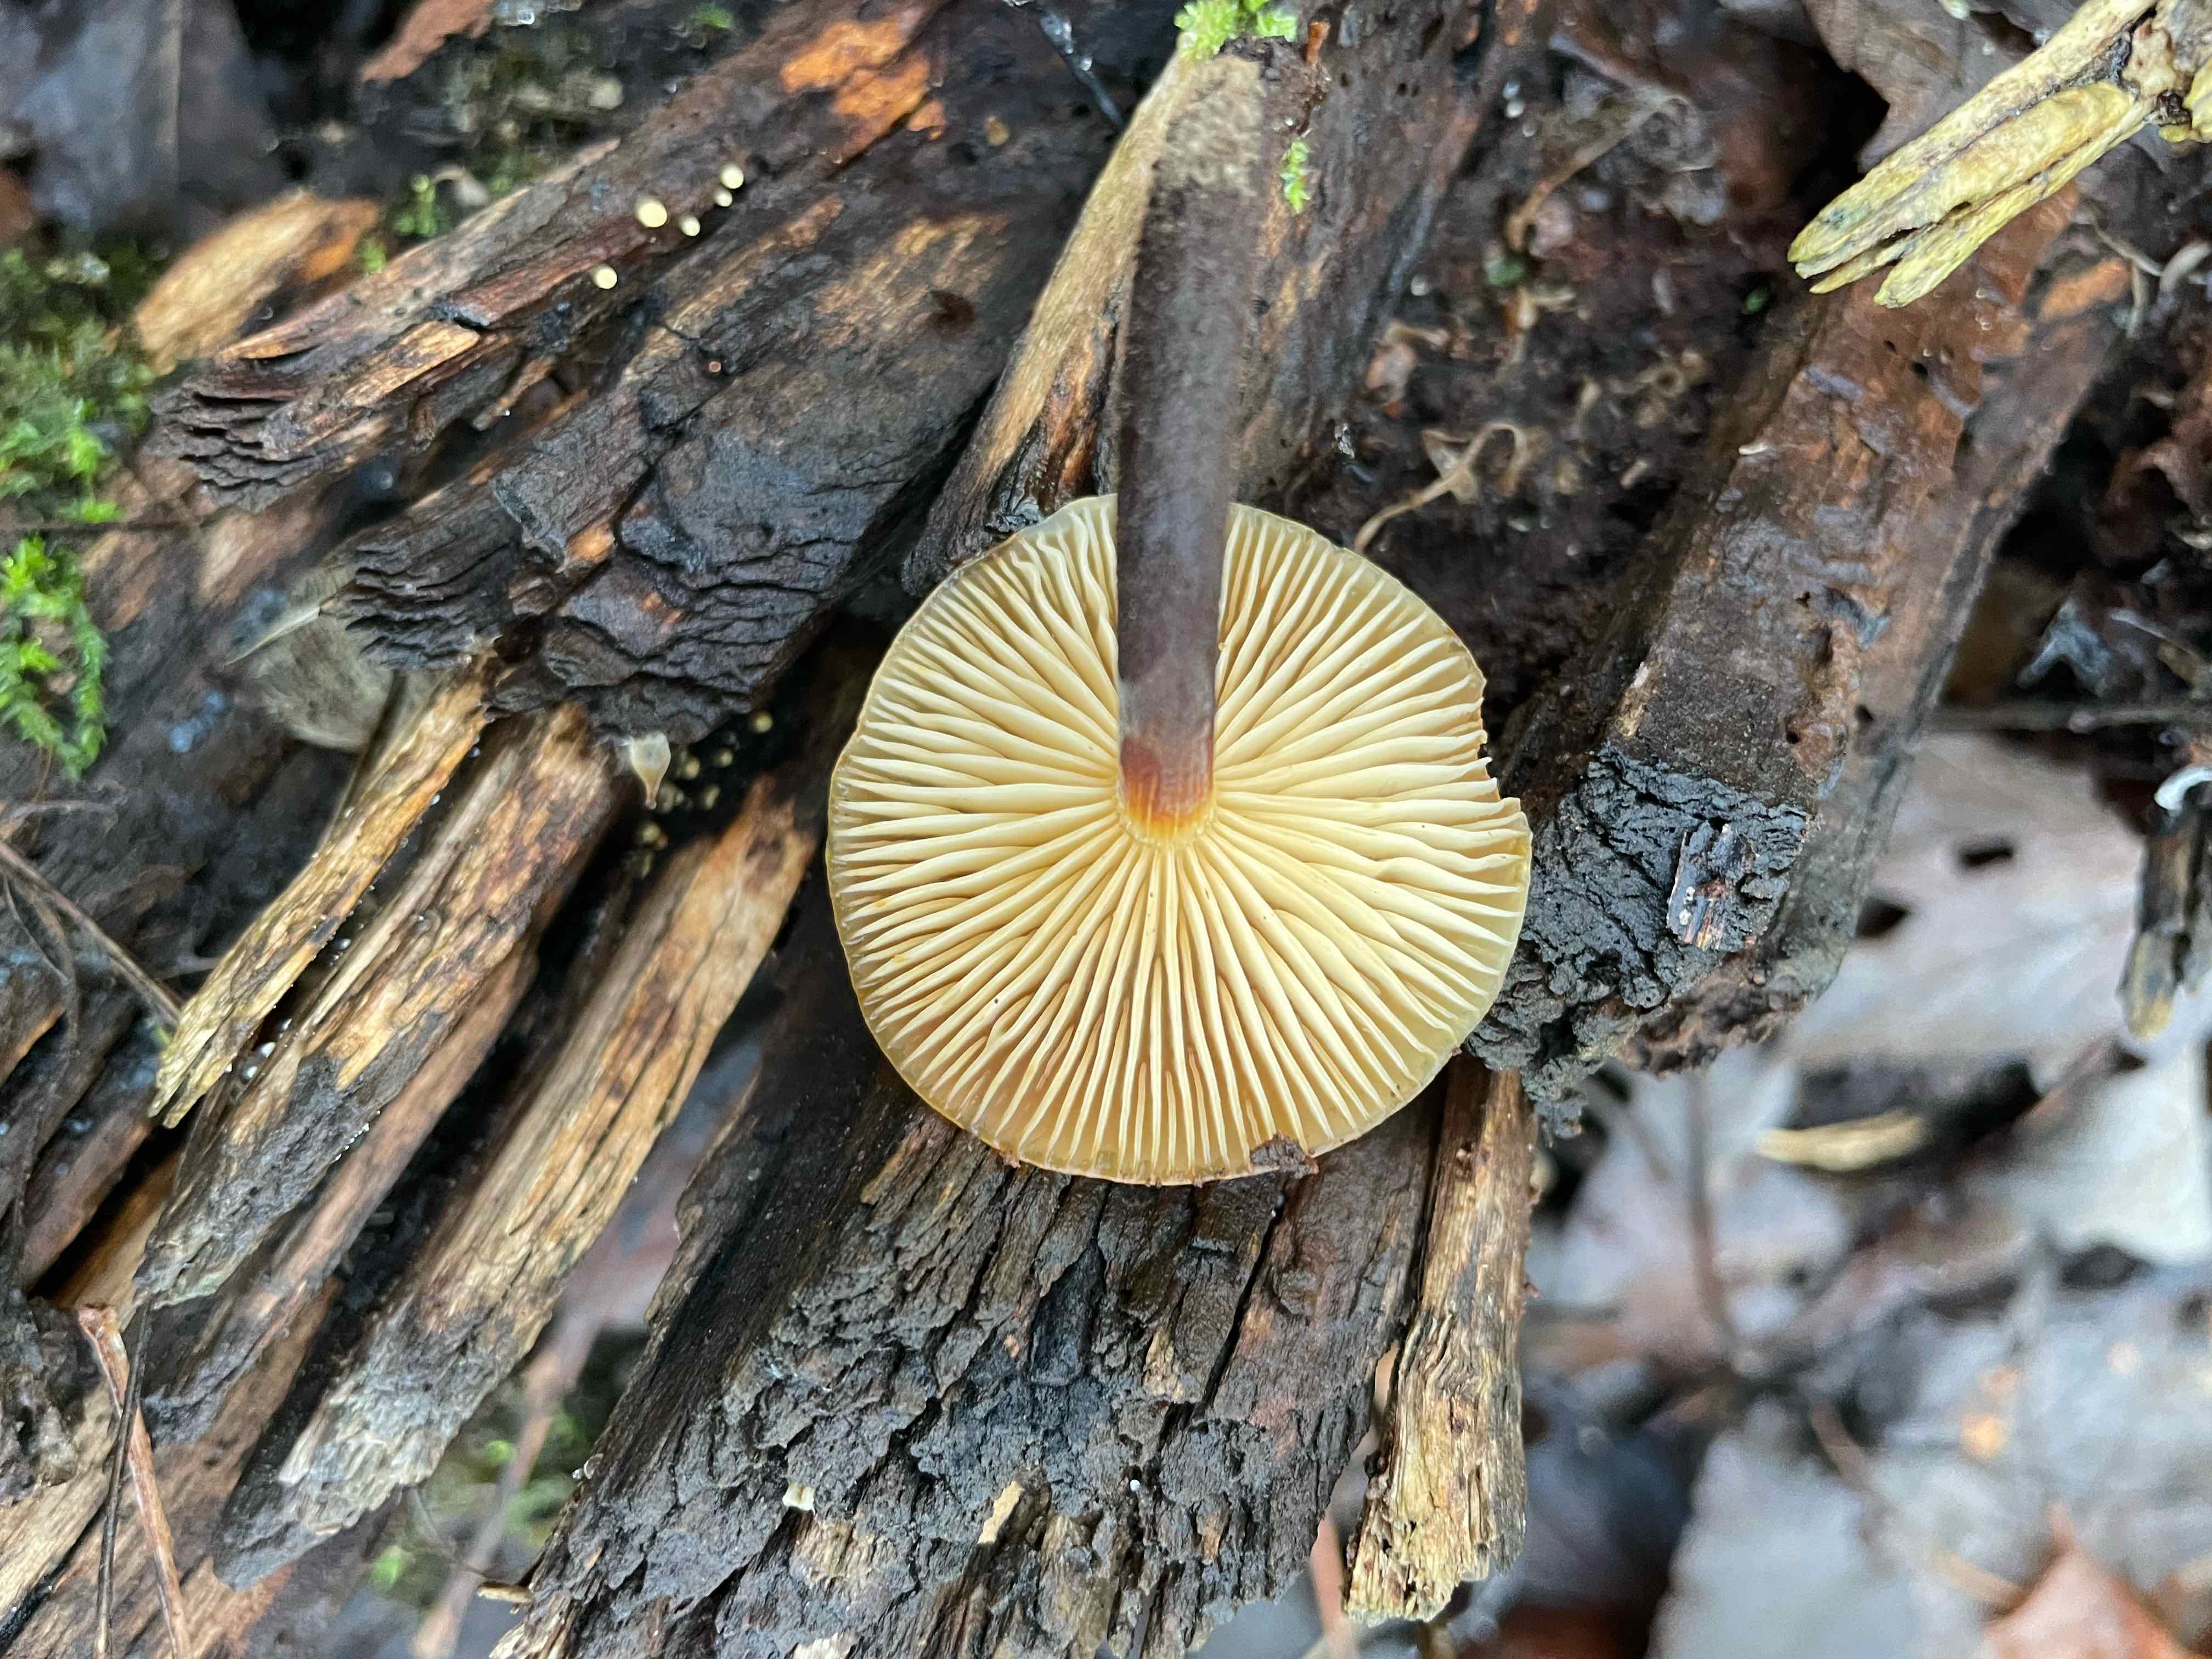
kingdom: Fungi
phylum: Basidiomycota
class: Agaricomycetes
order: Agaricales
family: Physalacriaceae
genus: Flammulina
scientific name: Flammulina
